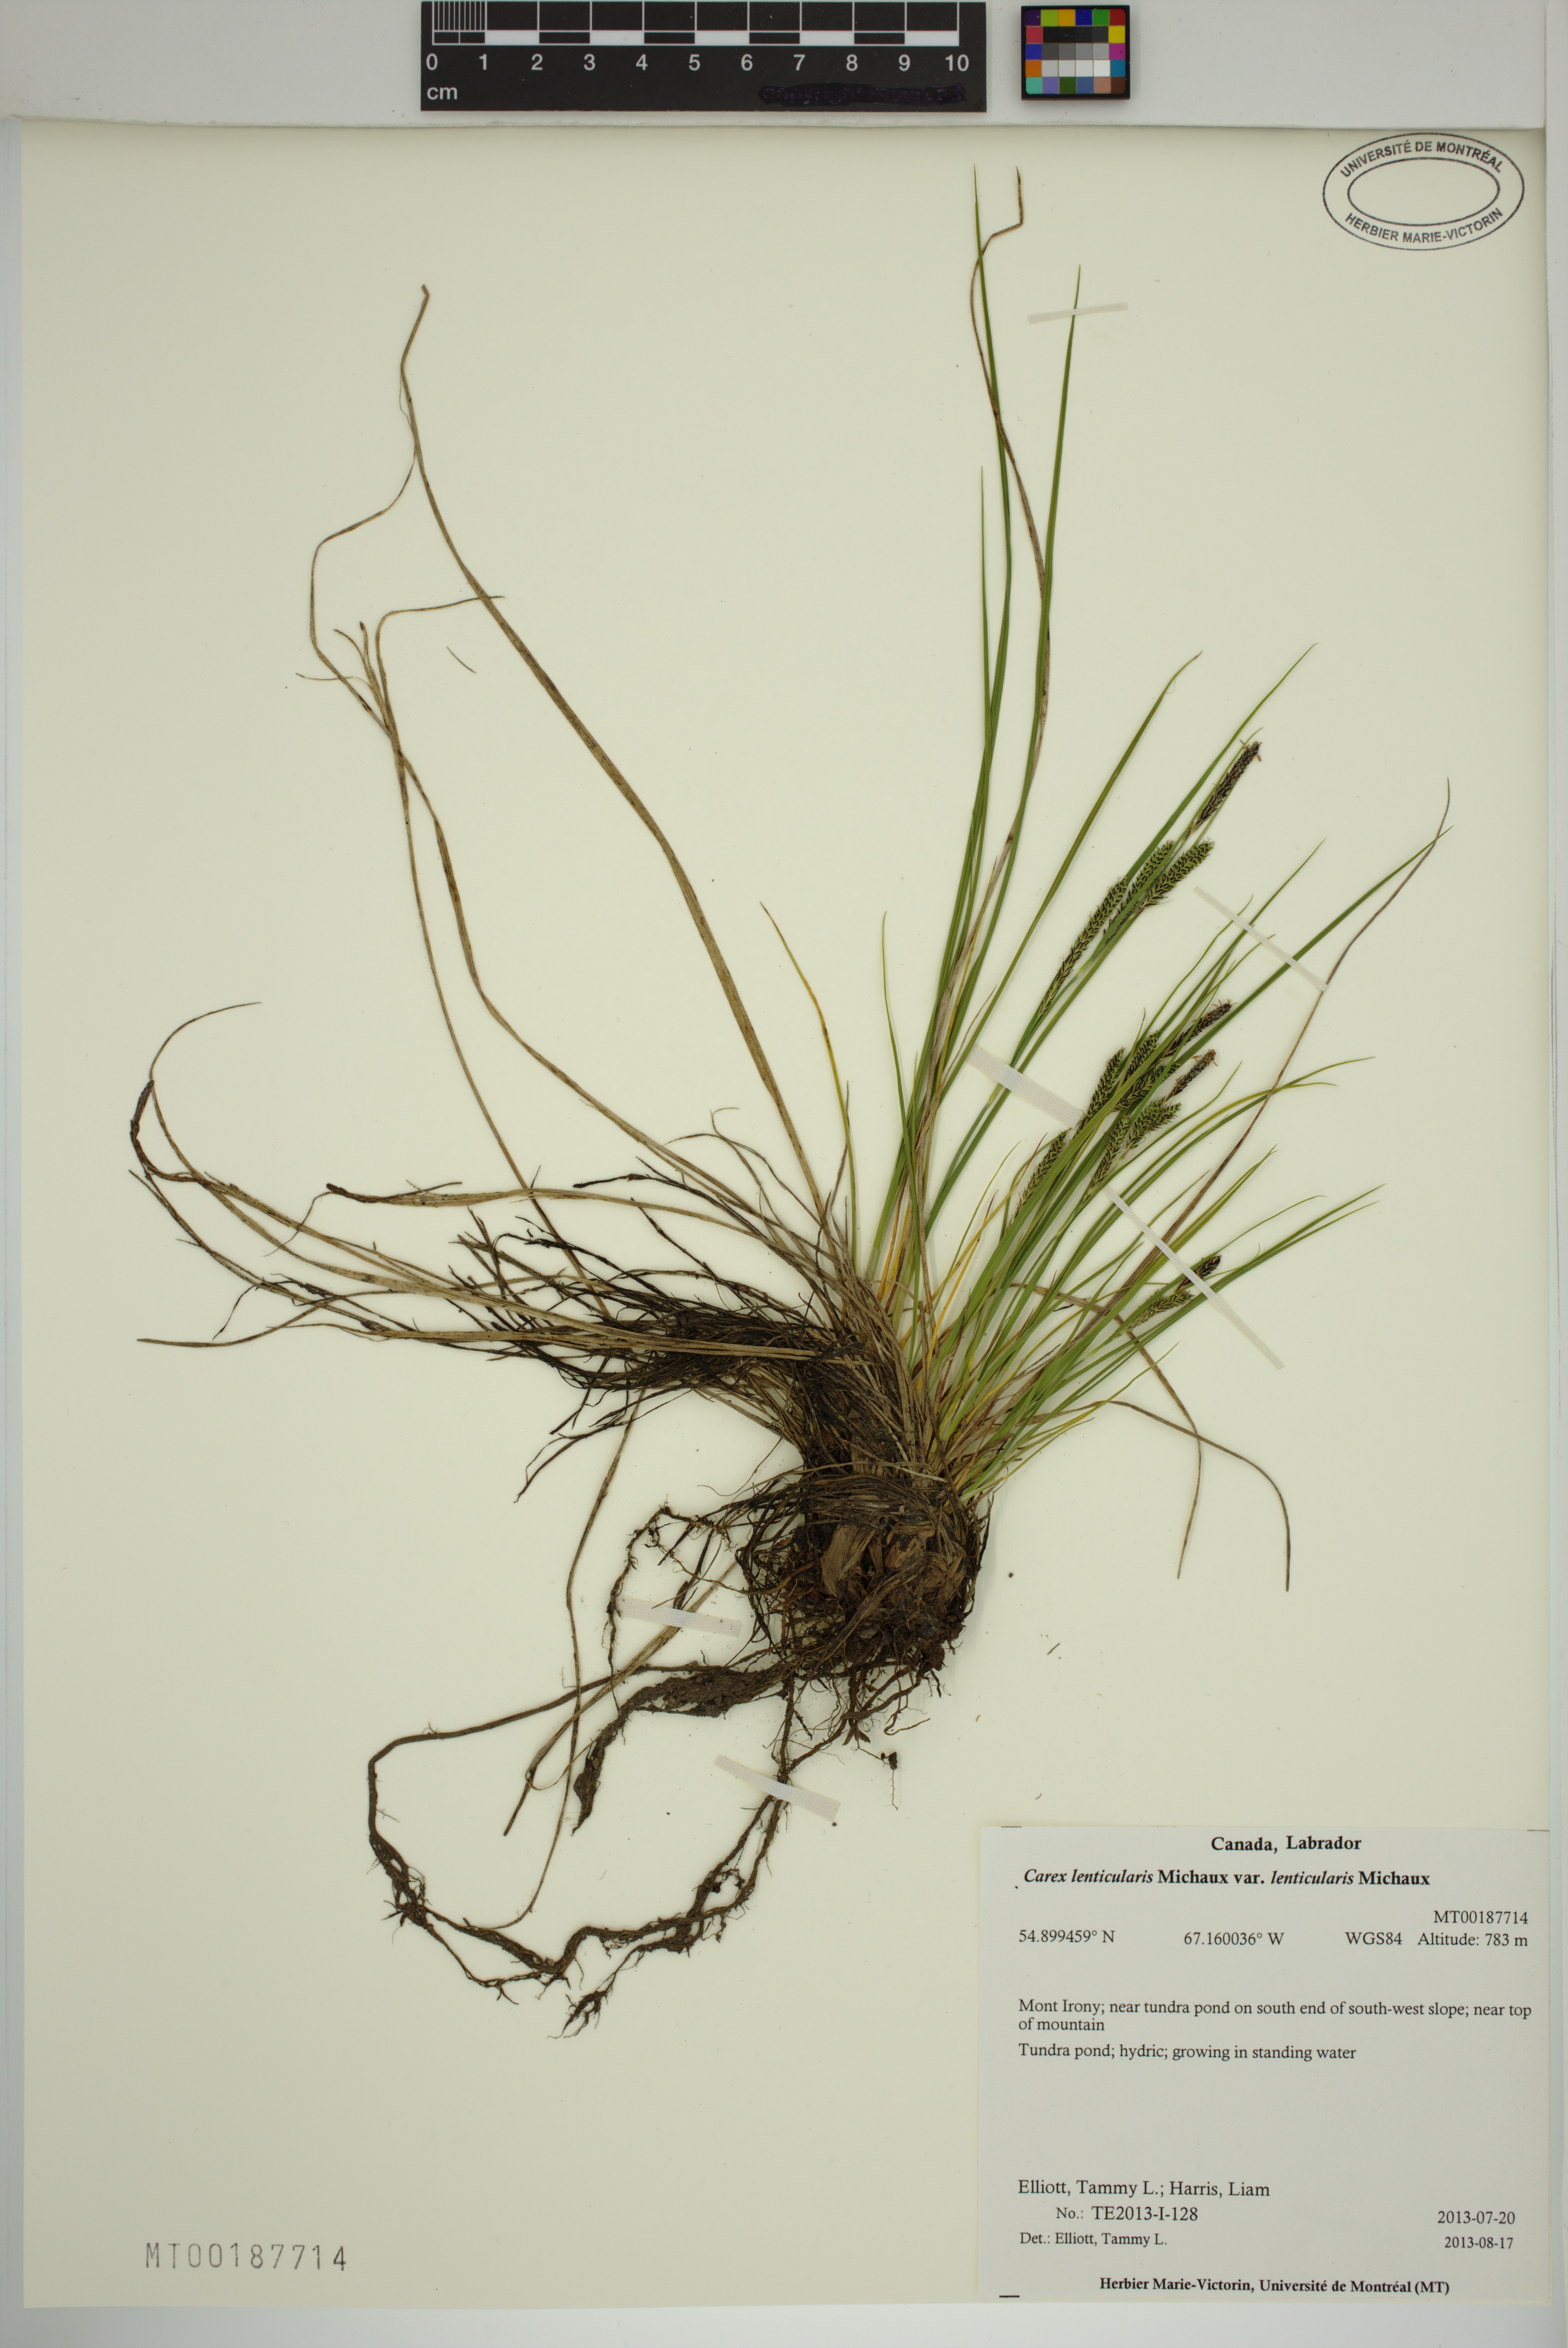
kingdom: Plantae
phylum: Tracheophyta
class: Liliopsida
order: Poales
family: Cyperaceae
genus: Carex
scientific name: Carex lenticularis
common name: Lakeshore sedge
